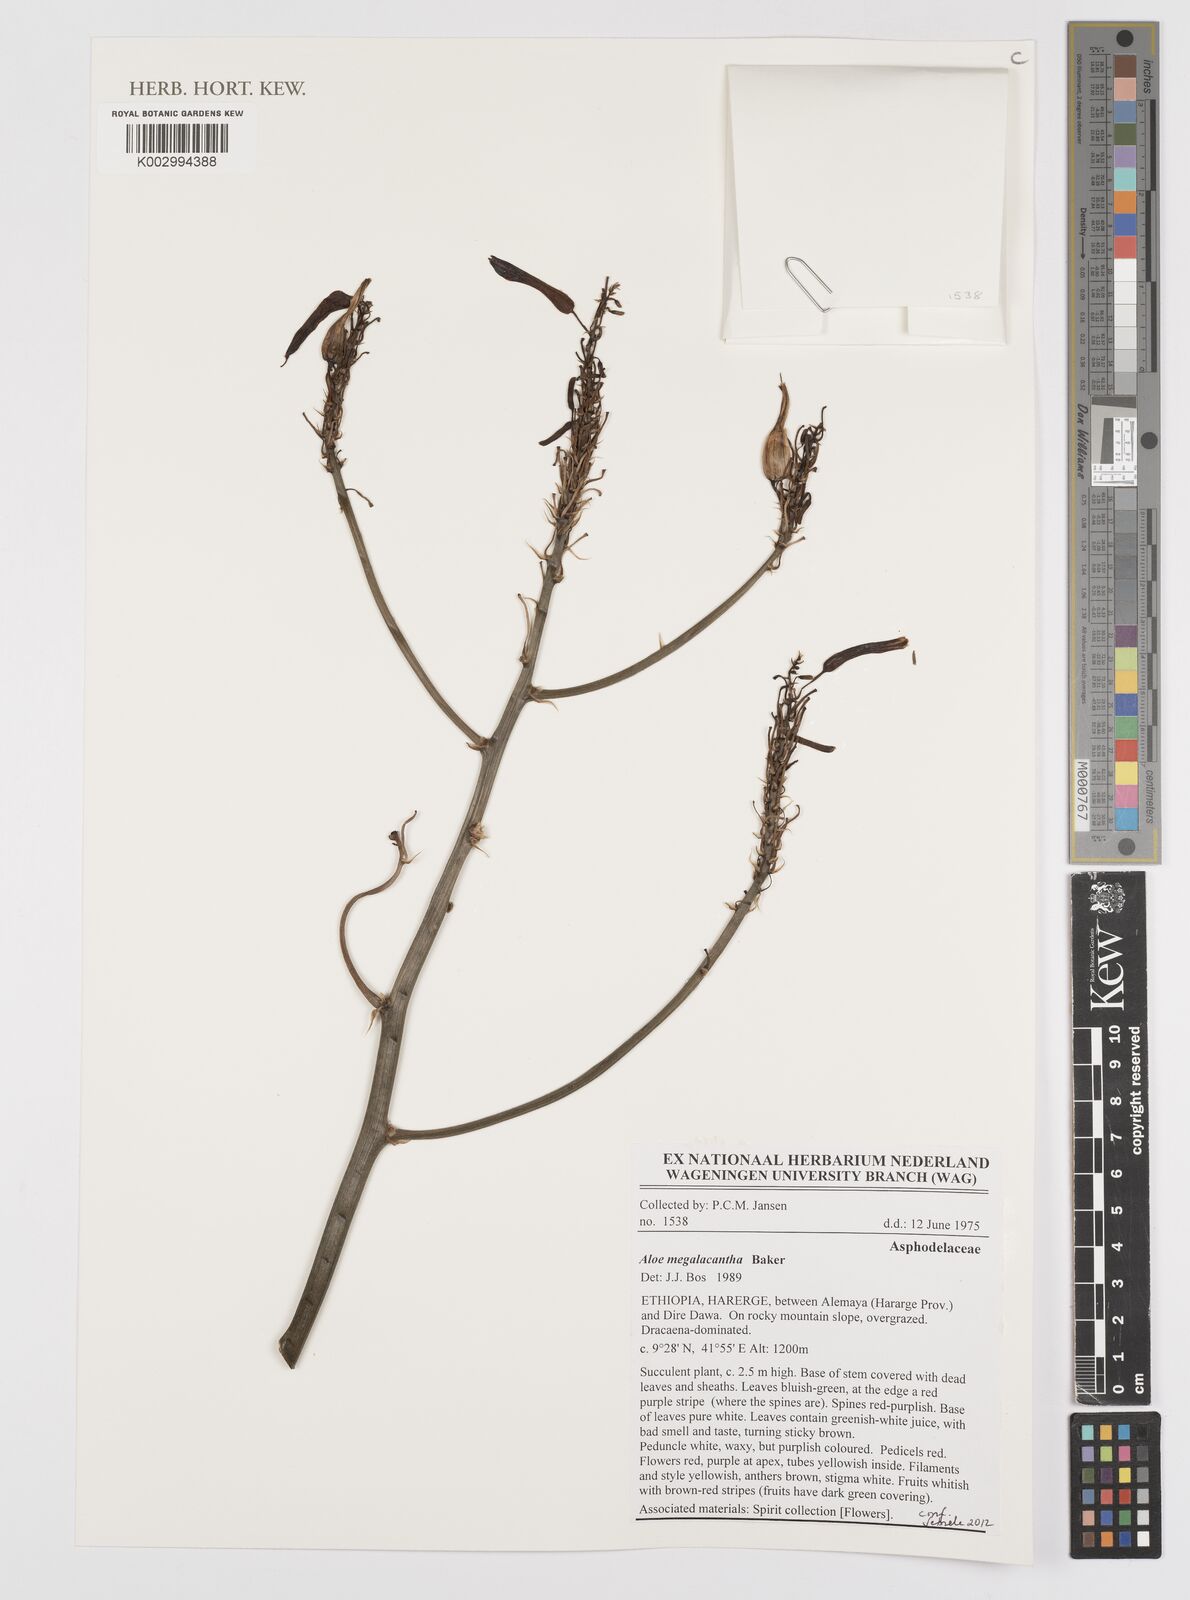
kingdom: Plantae
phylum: Tracheophyta
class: Liliopsida
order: Asparagales
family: Asphodelaceae
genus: Aloe
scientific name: Aloe megalacantha
